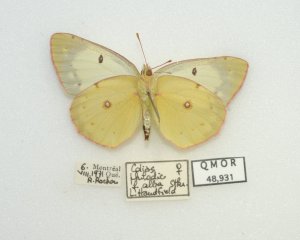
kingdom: Animalia
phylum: Arthropoda
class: Insecta
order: Lepidoptera
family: Pieridae
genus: Colias
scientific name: Colias philodice
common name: Clouded Sulphur
